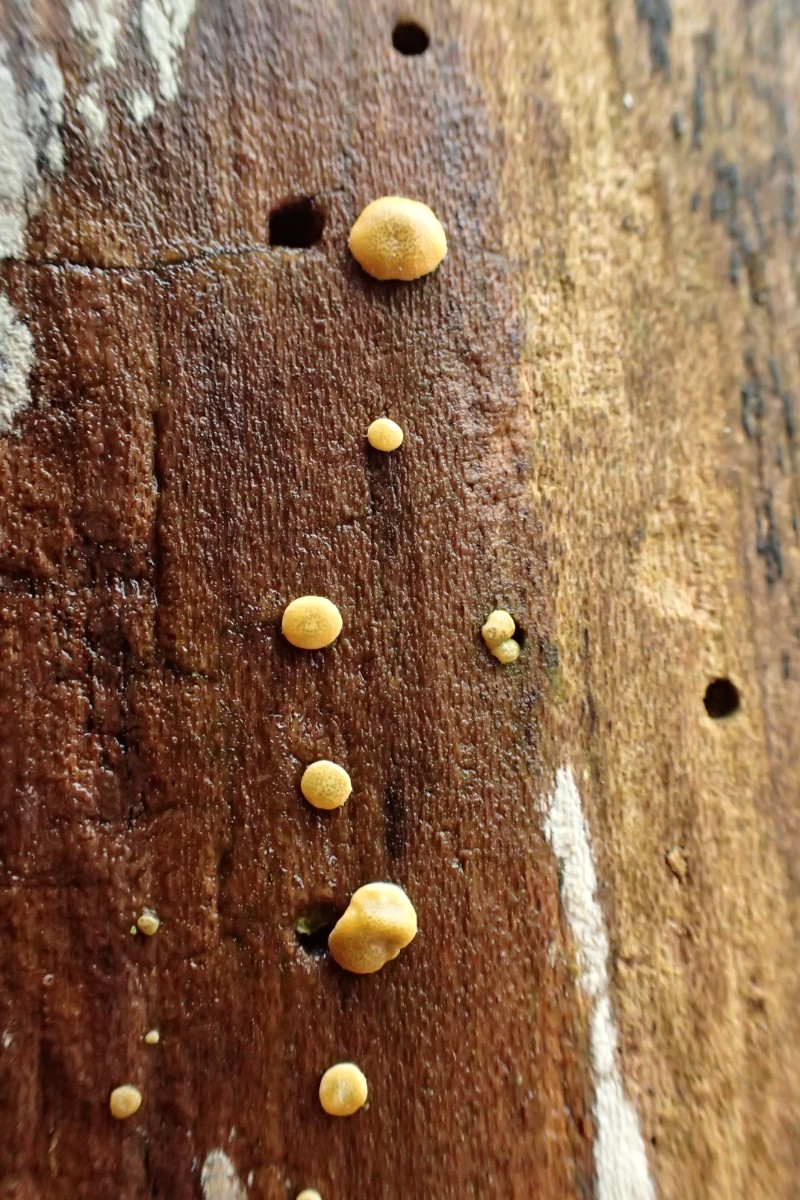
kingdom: Fungi
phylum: Ascomycota
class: Sordariomycetes
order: Hypocreales
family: Hypocreaceae
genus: Trichoderma
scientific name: Trichoderma aureoviride
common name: æggegul kødkerne
